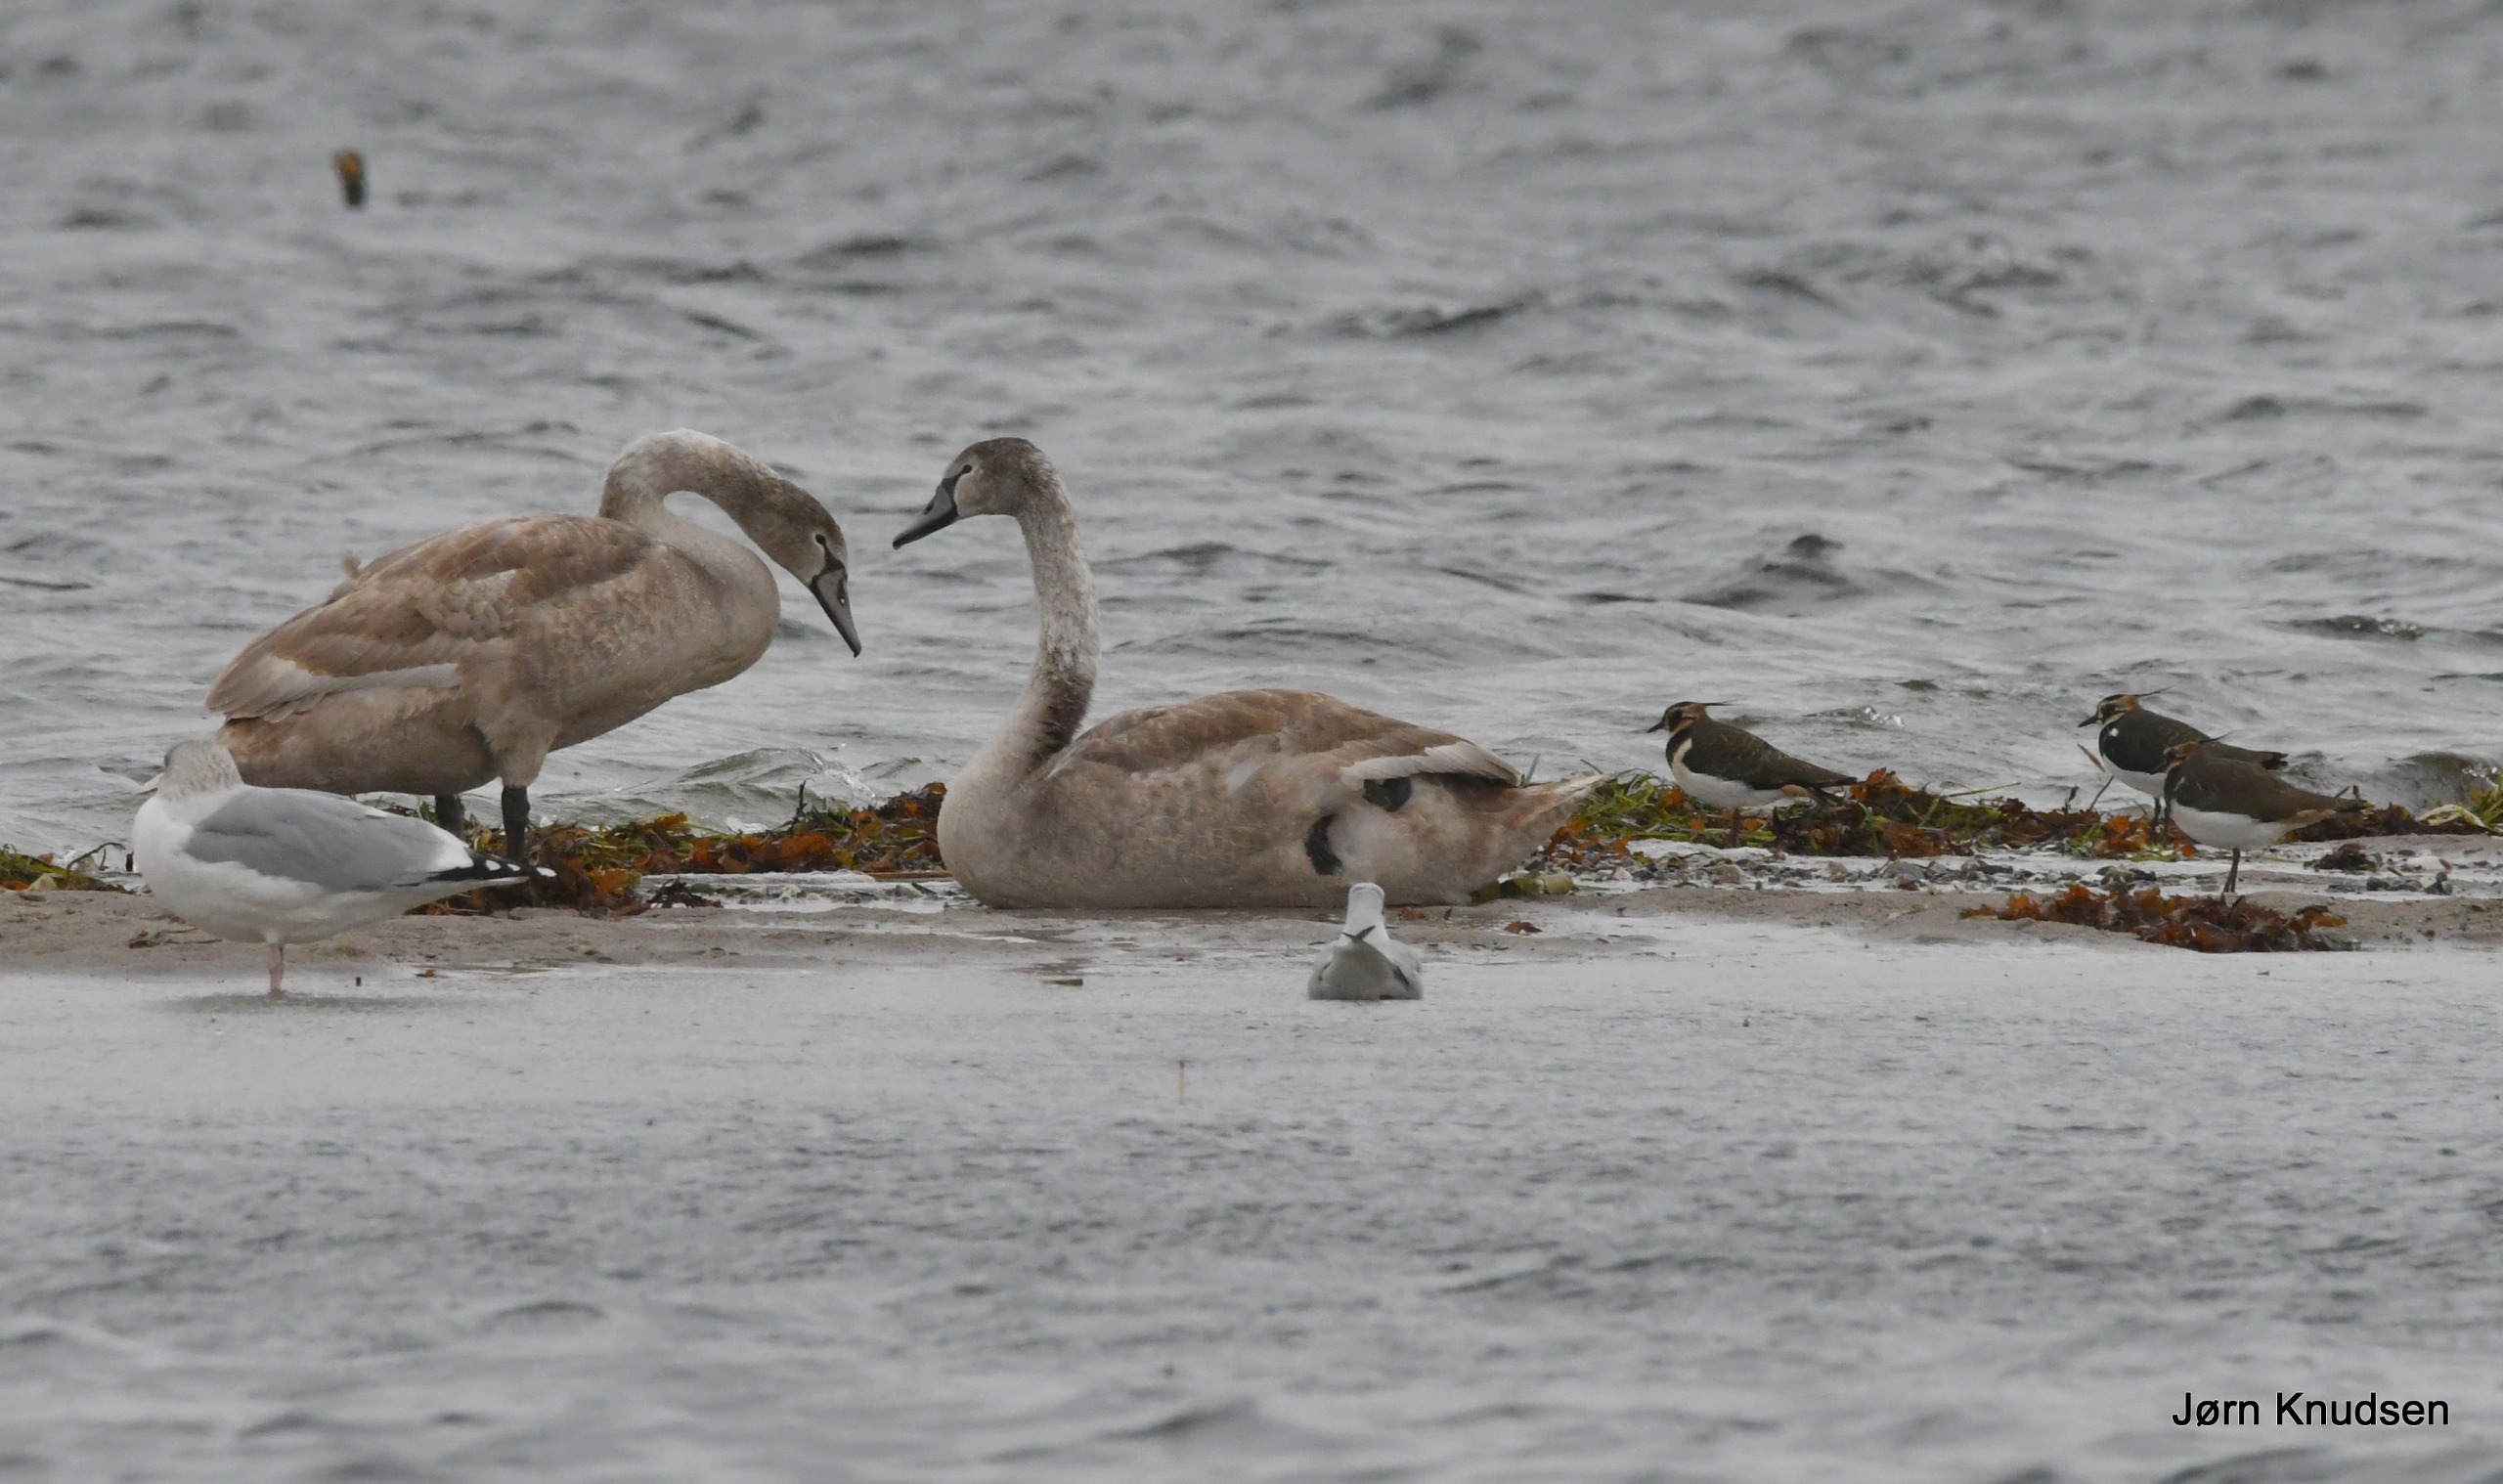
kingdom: Animalia
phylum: Chordata
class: Aves
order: Anseriformes
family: Anatidae
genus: Cygnus
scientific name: Cygnus olor
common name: Knopsvane
